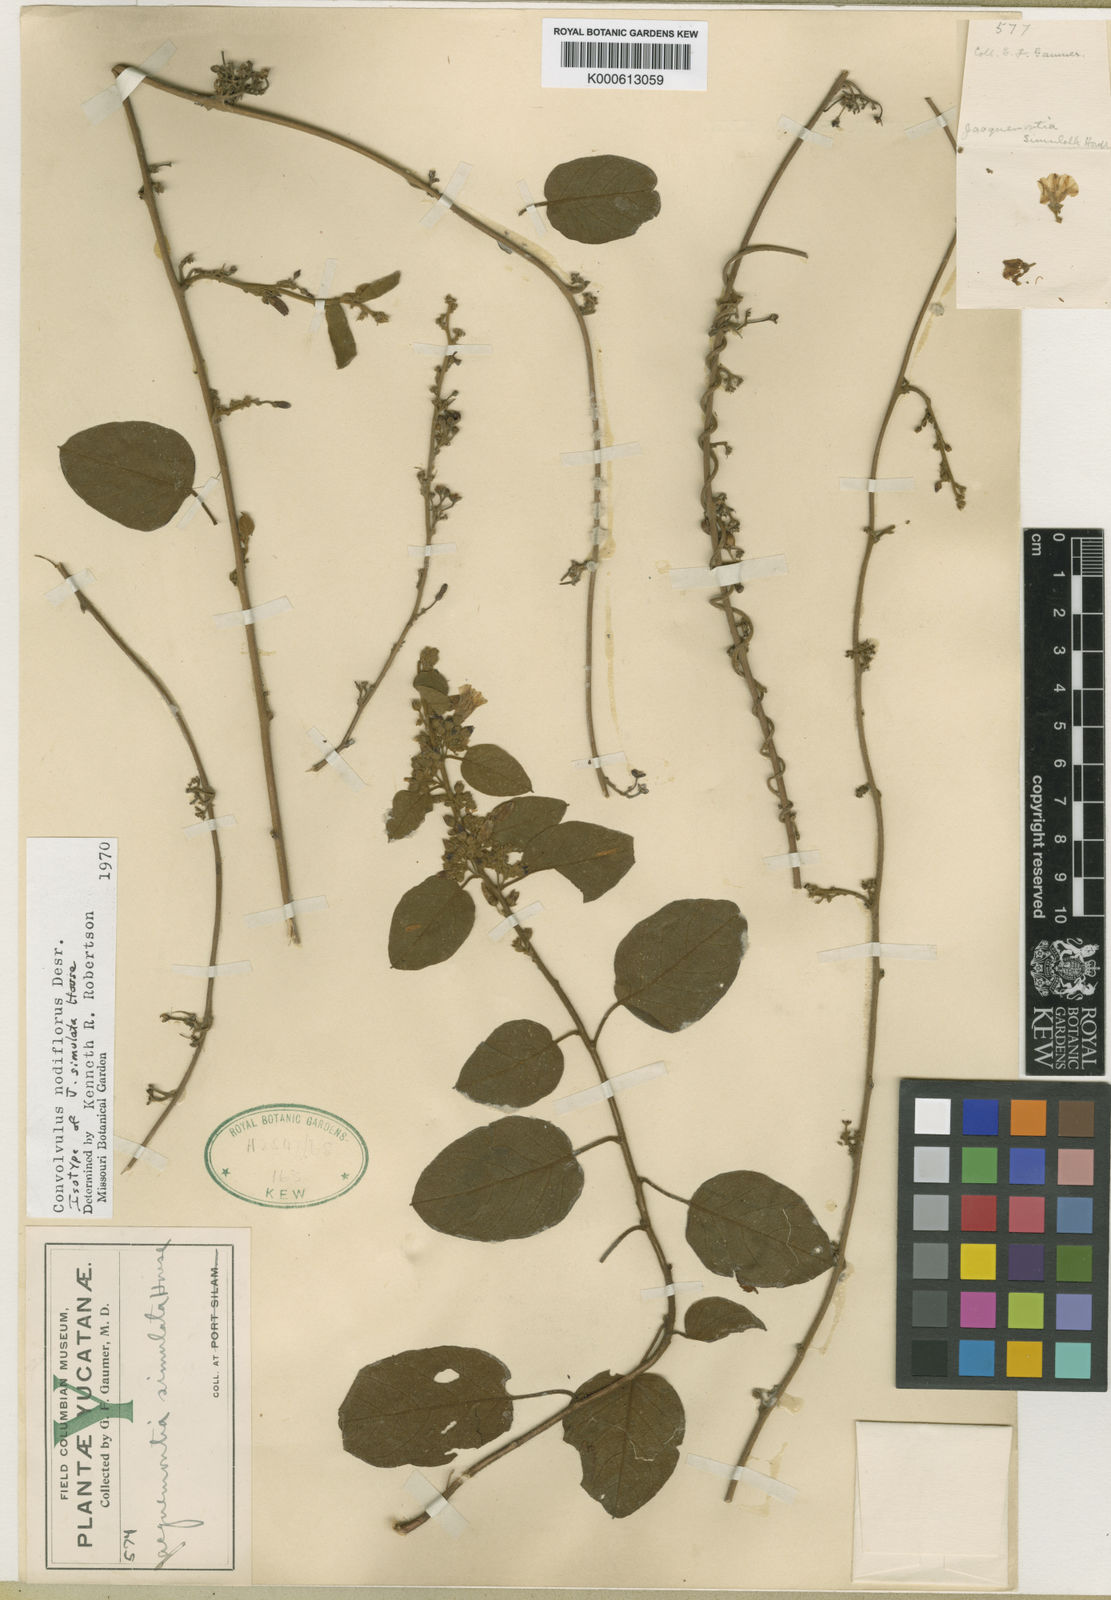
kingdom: Plantae
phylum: Tracheophyta
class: Magnoliopsida
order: Solanales
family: Convolvulaceae
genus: Jacquemontia
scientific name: Jacquemontia nodiflora
